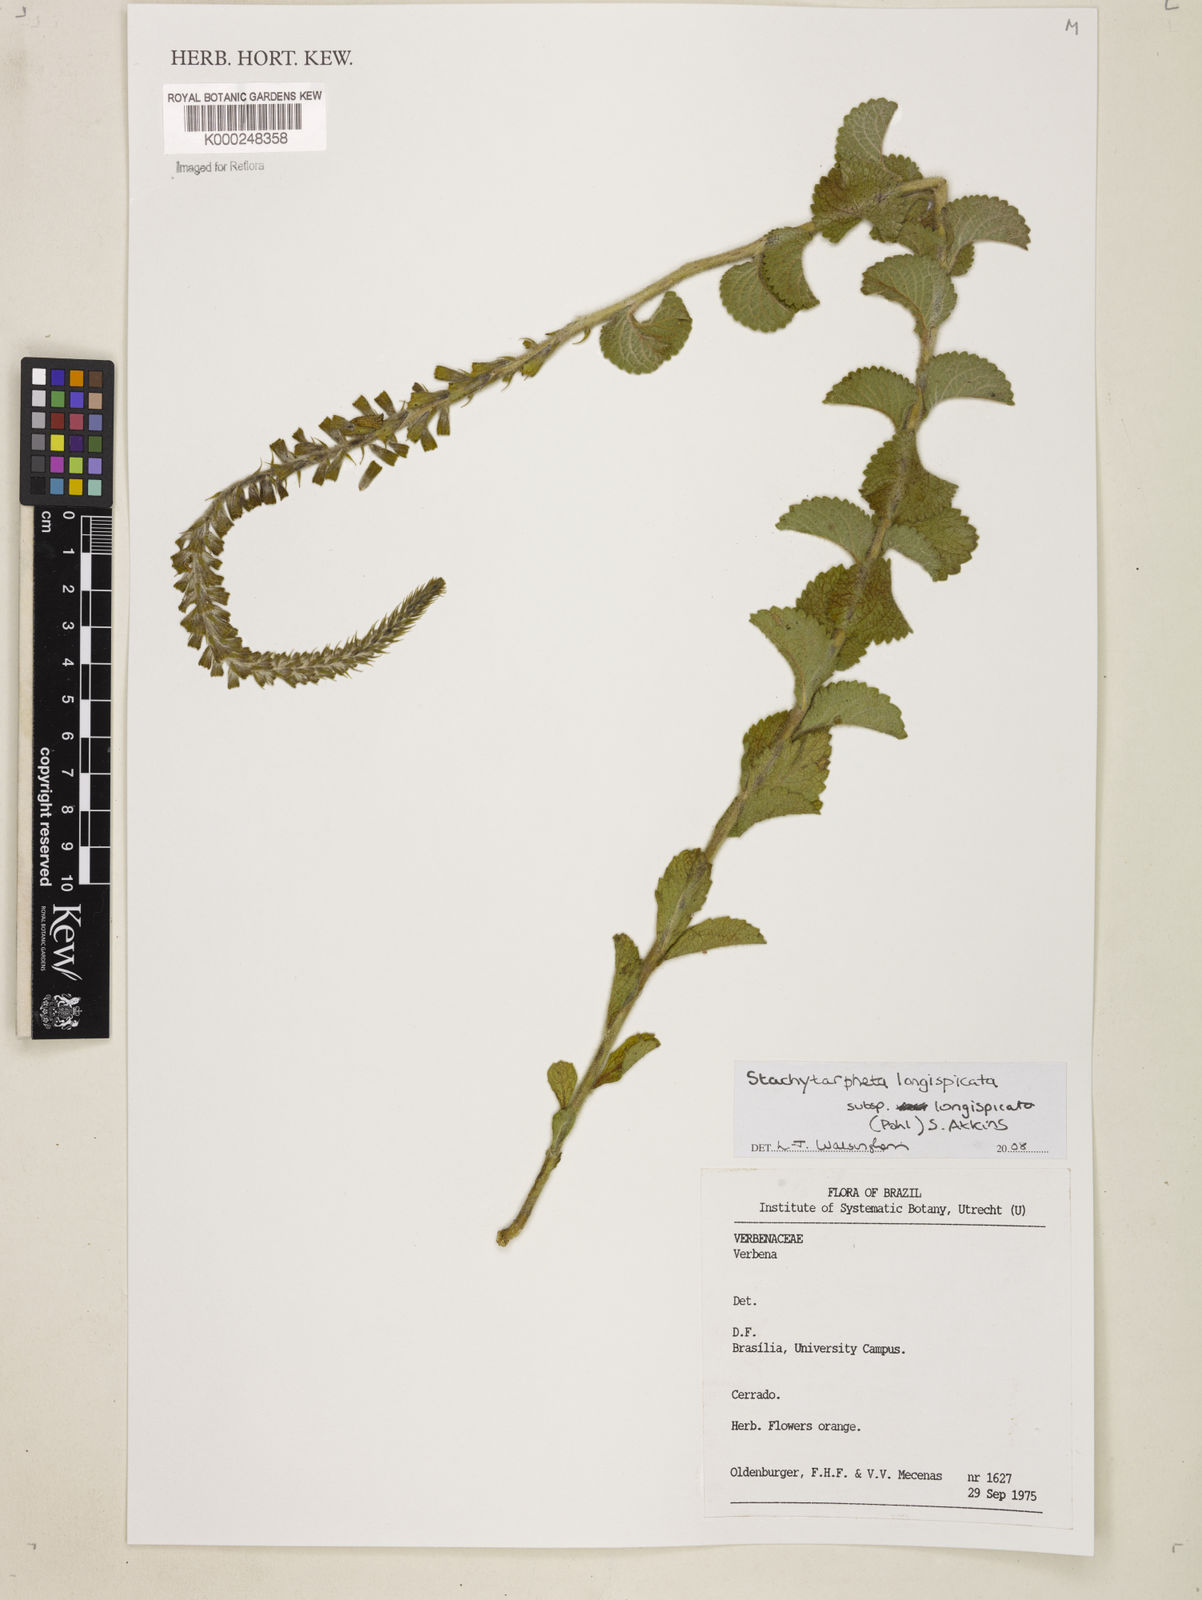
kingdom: Plantae
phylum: Tracheophyta
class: Magnoliopsida
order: Lamiales
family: Verbenaceae
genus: Stachytarpheta
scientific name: Stachytarpheta longispicata
